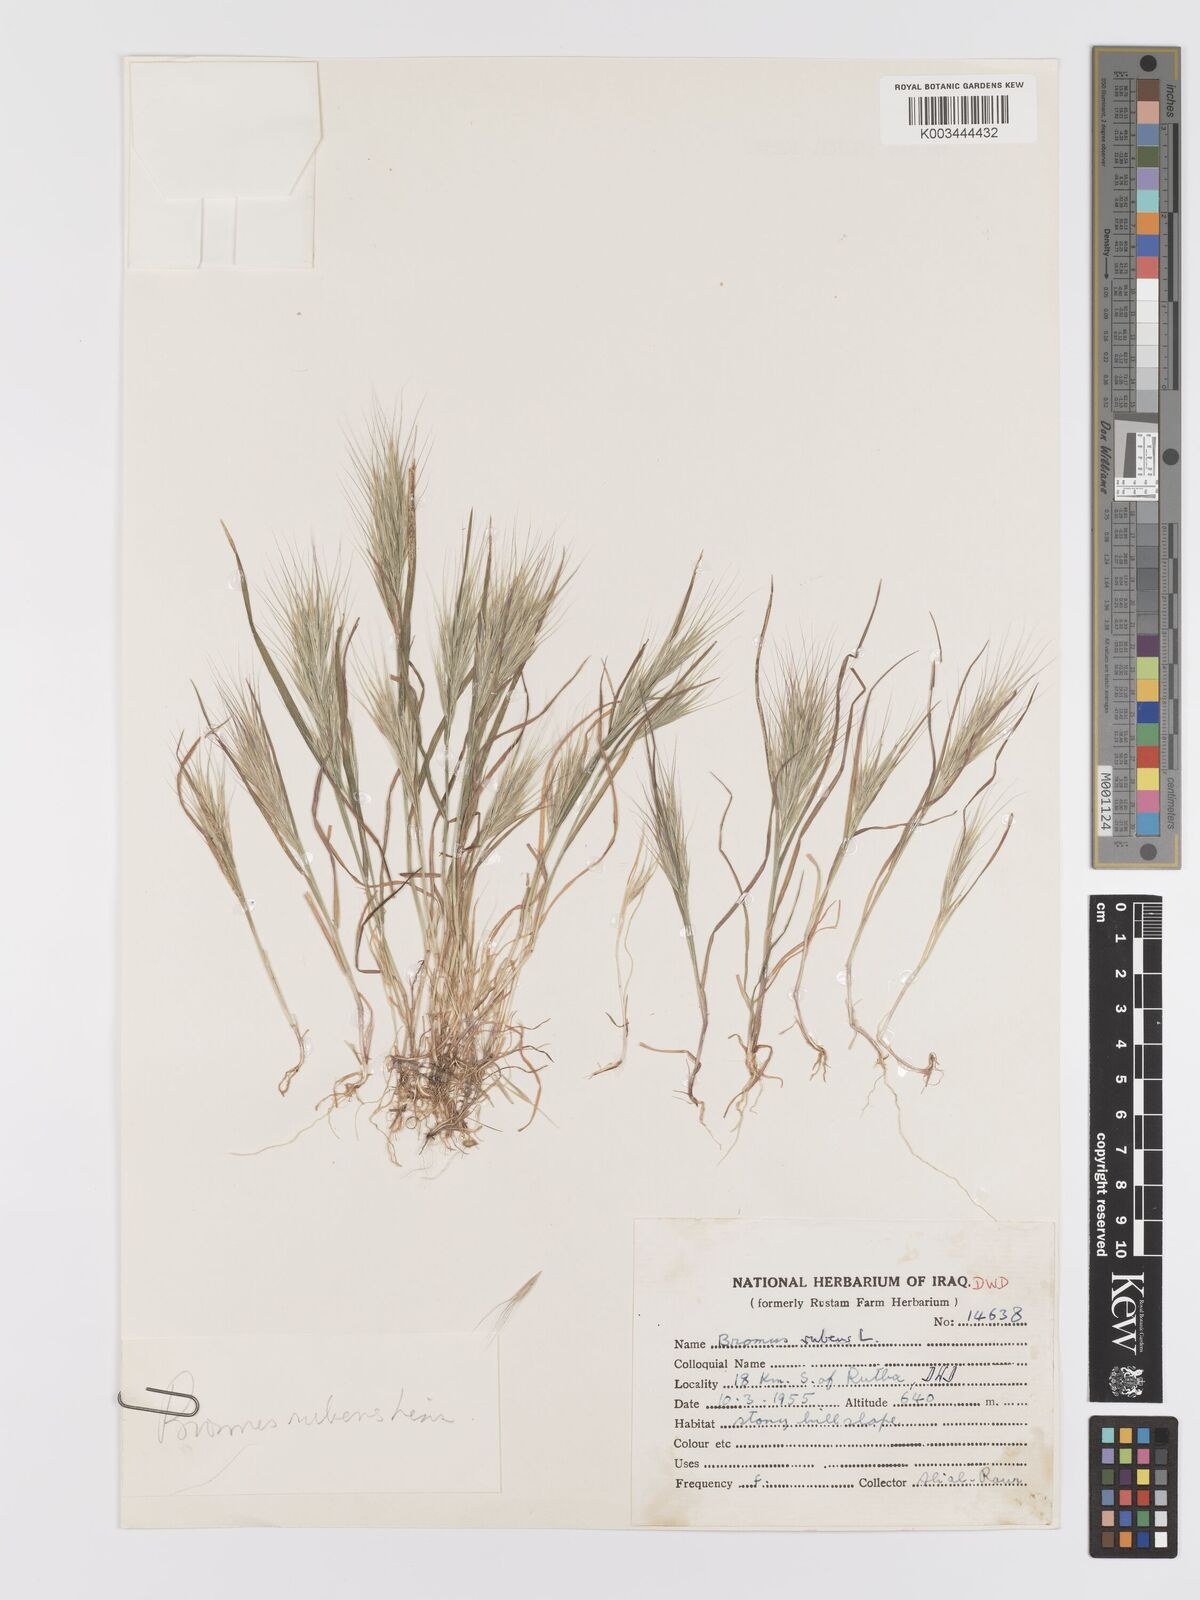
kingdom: Plantae
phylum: Tracheophyta
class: Liliopsida
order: Poales
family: Poaceae
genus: Bromus
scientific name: Bromus rubens
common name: Red brome
